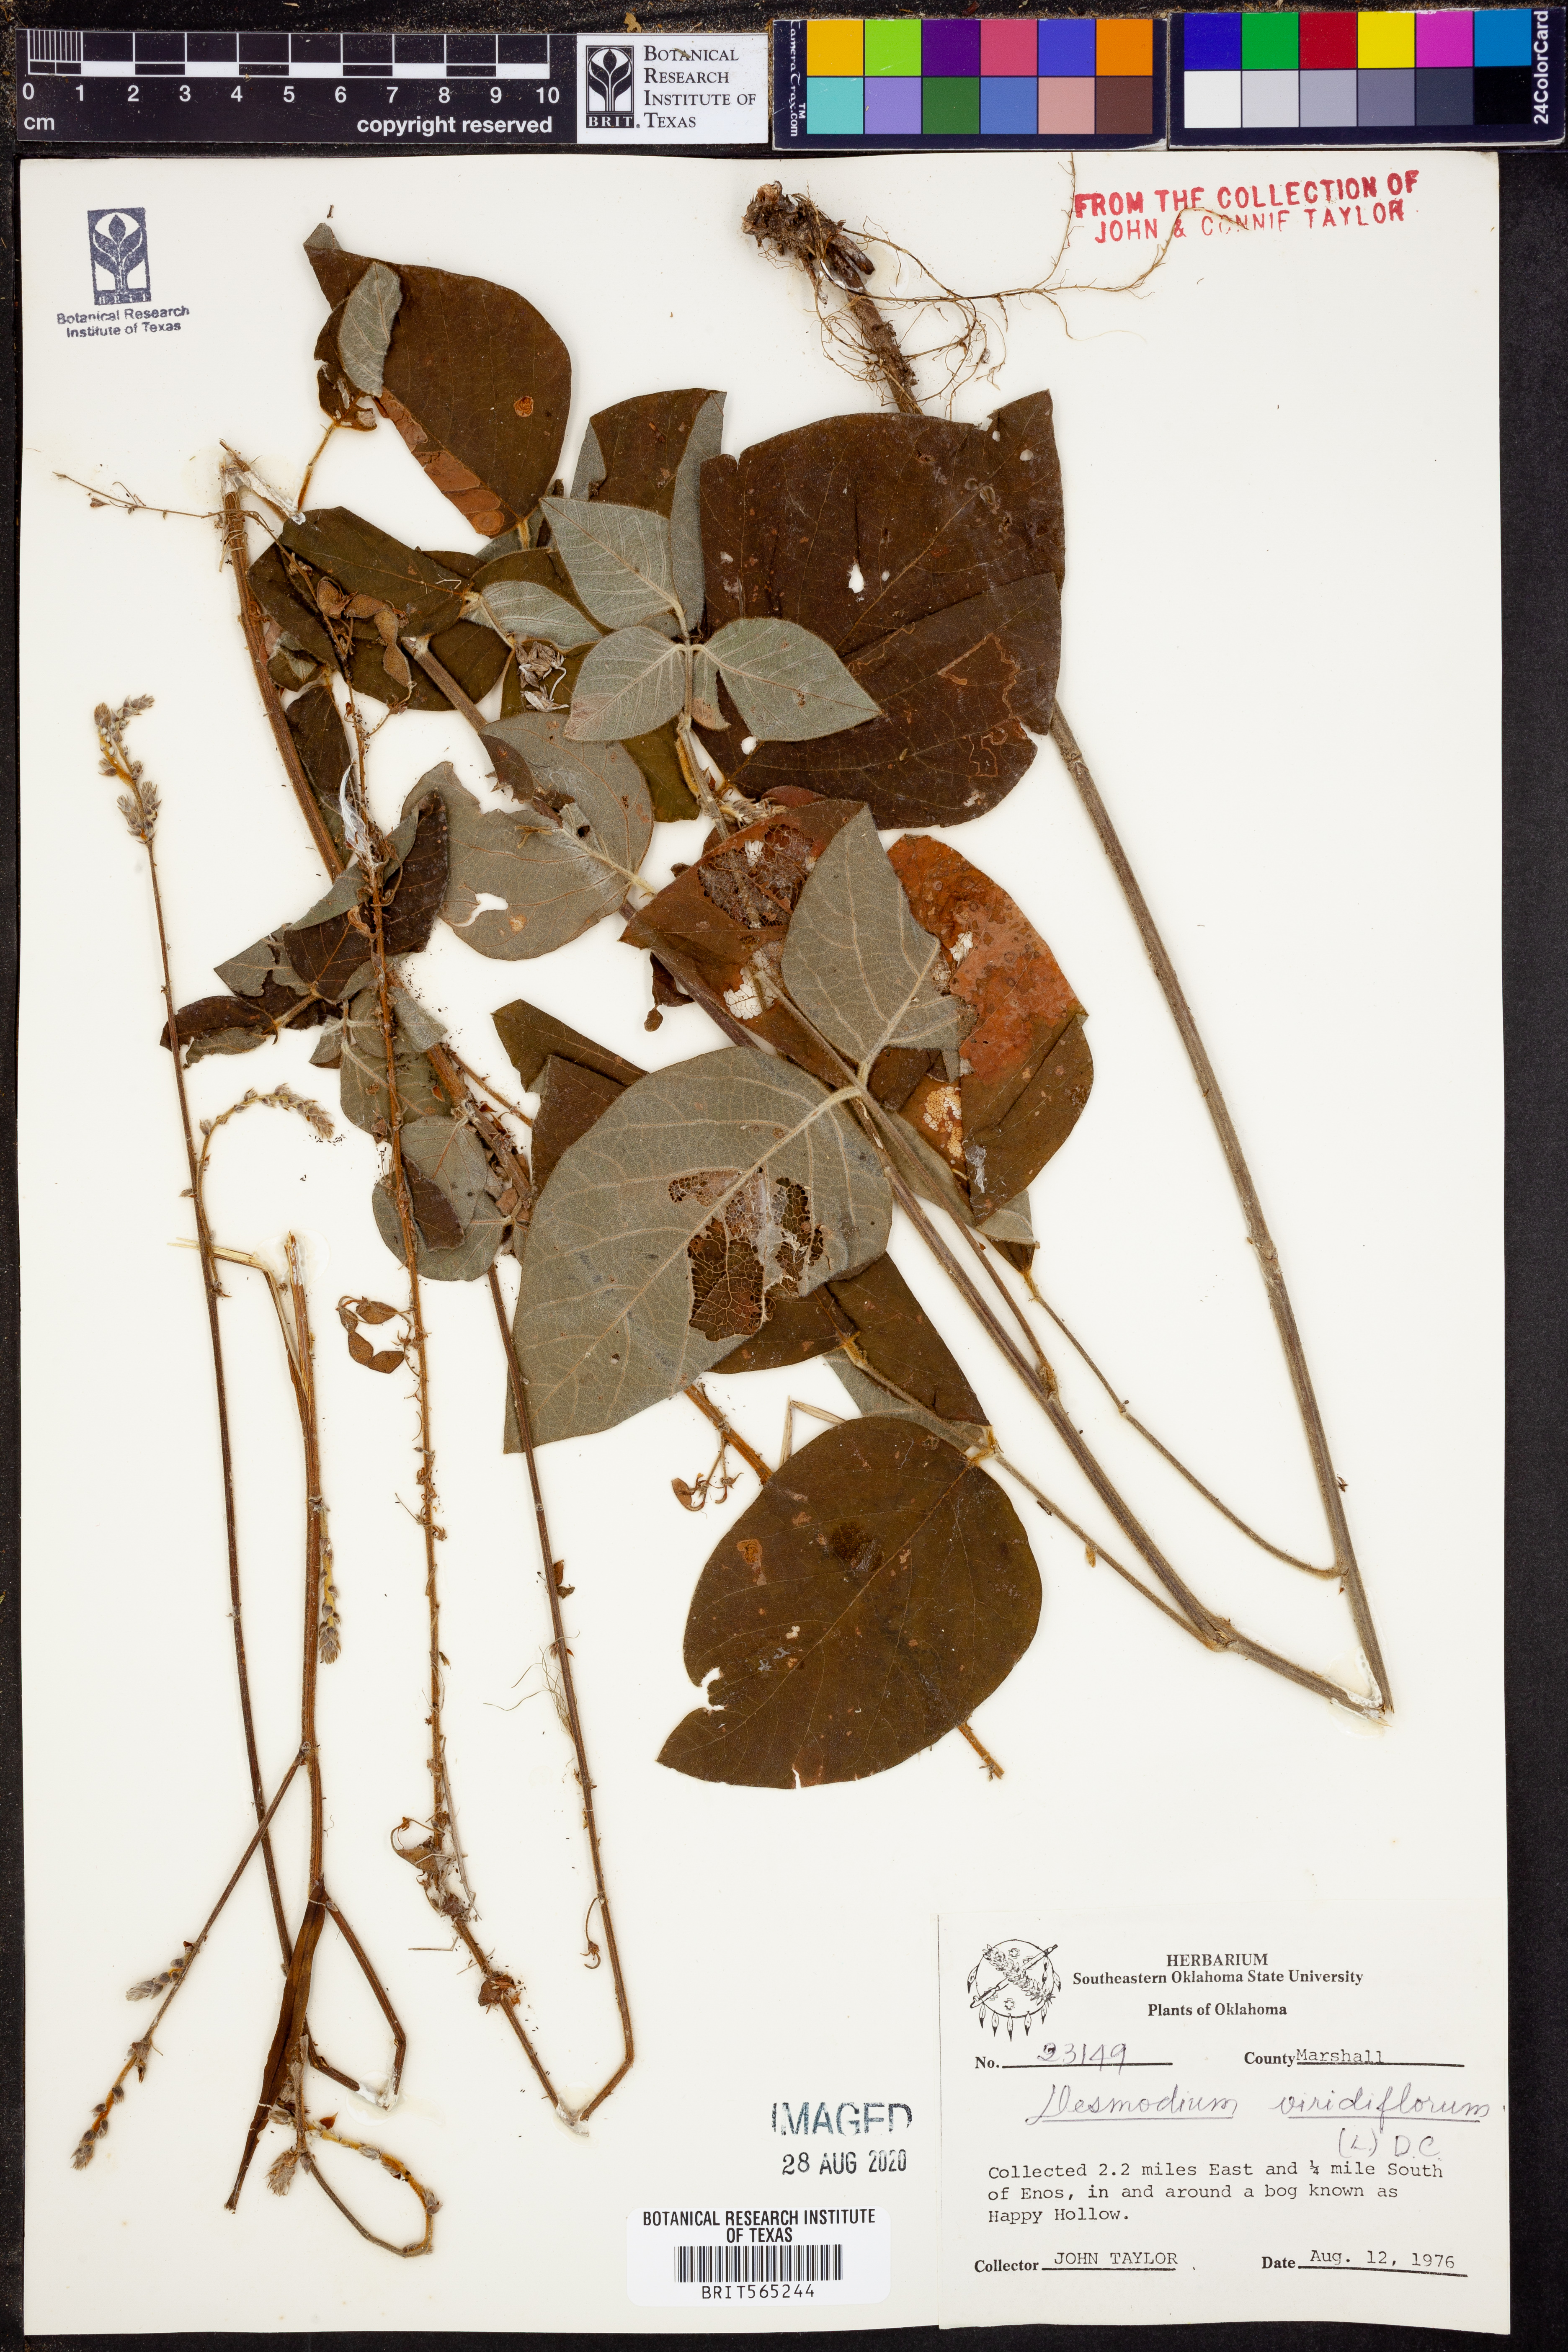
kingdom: Plantae
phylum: Tracheophyta
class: Magnoliopsida
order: Fabales
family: Fabaceae
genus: Desmodium
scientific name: Desmodium viridiflorum
